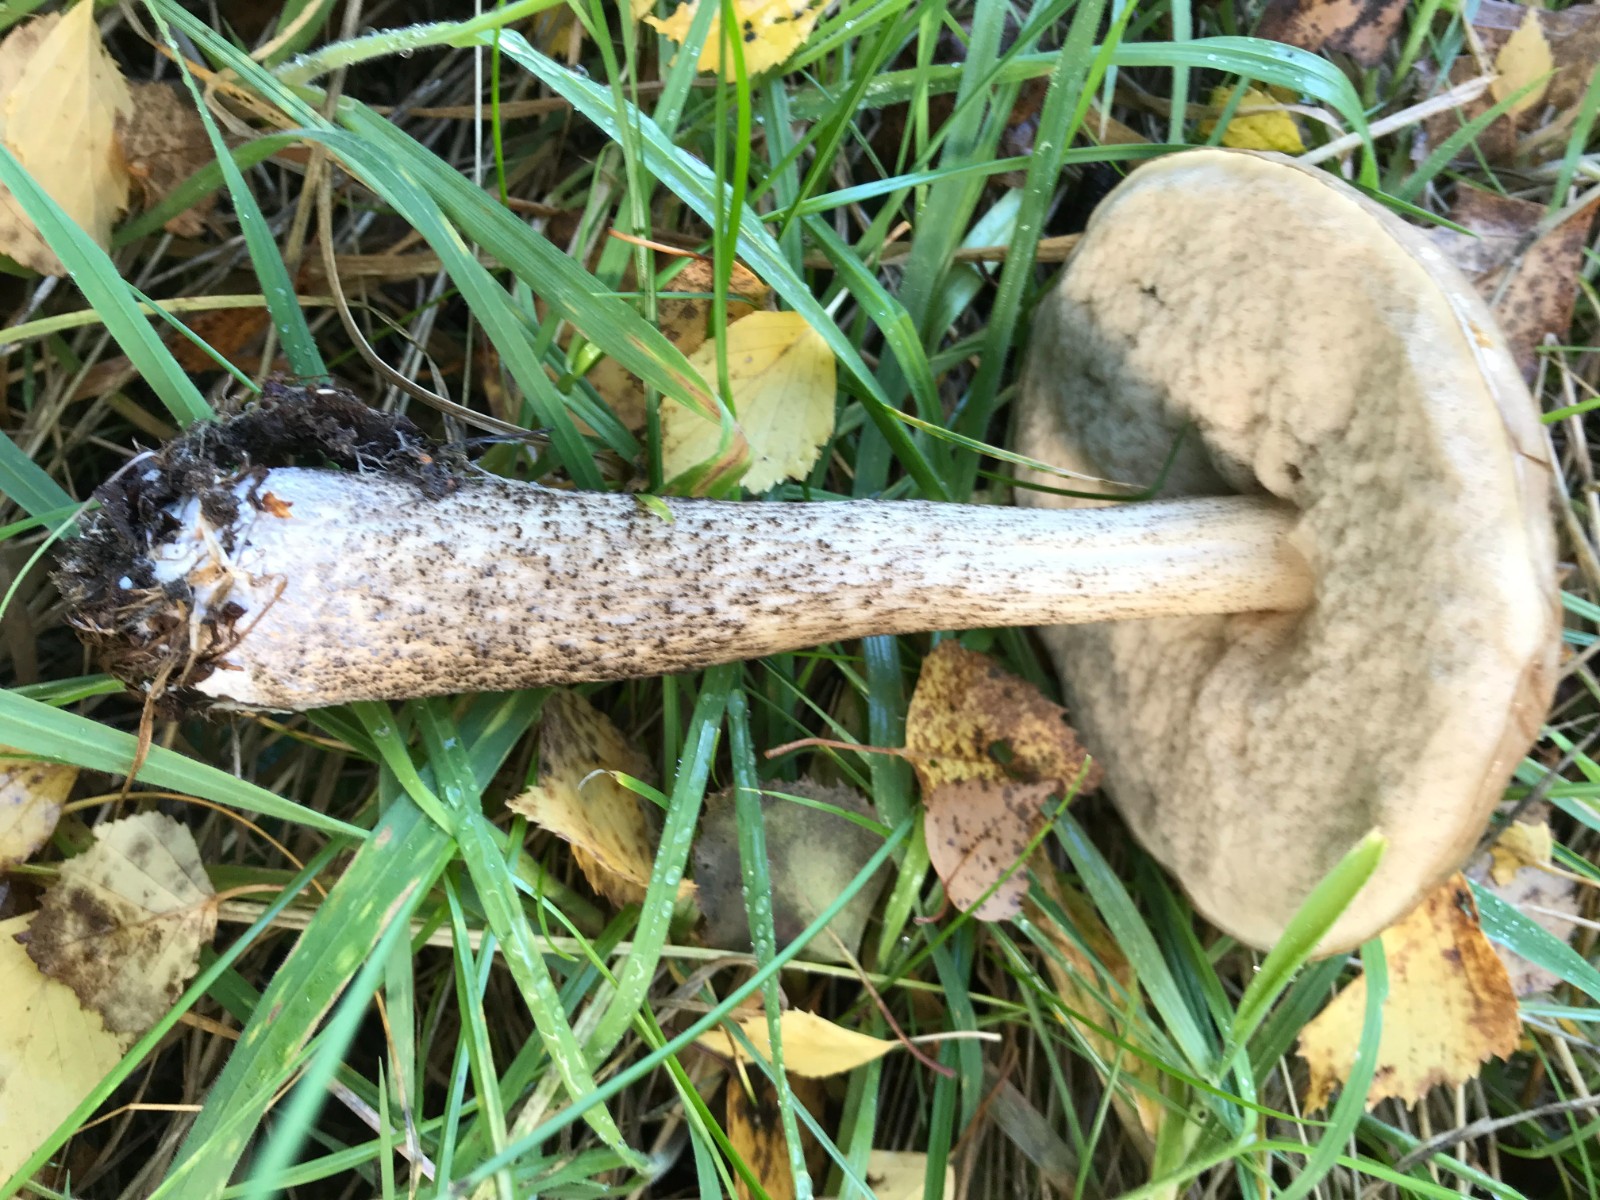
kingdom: Fungi
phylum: Basidiomycota
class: Agaricomycetes
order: Boletales
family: Boletaceae
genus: Leccinum
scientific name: Leccinum
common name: skælrørhat
